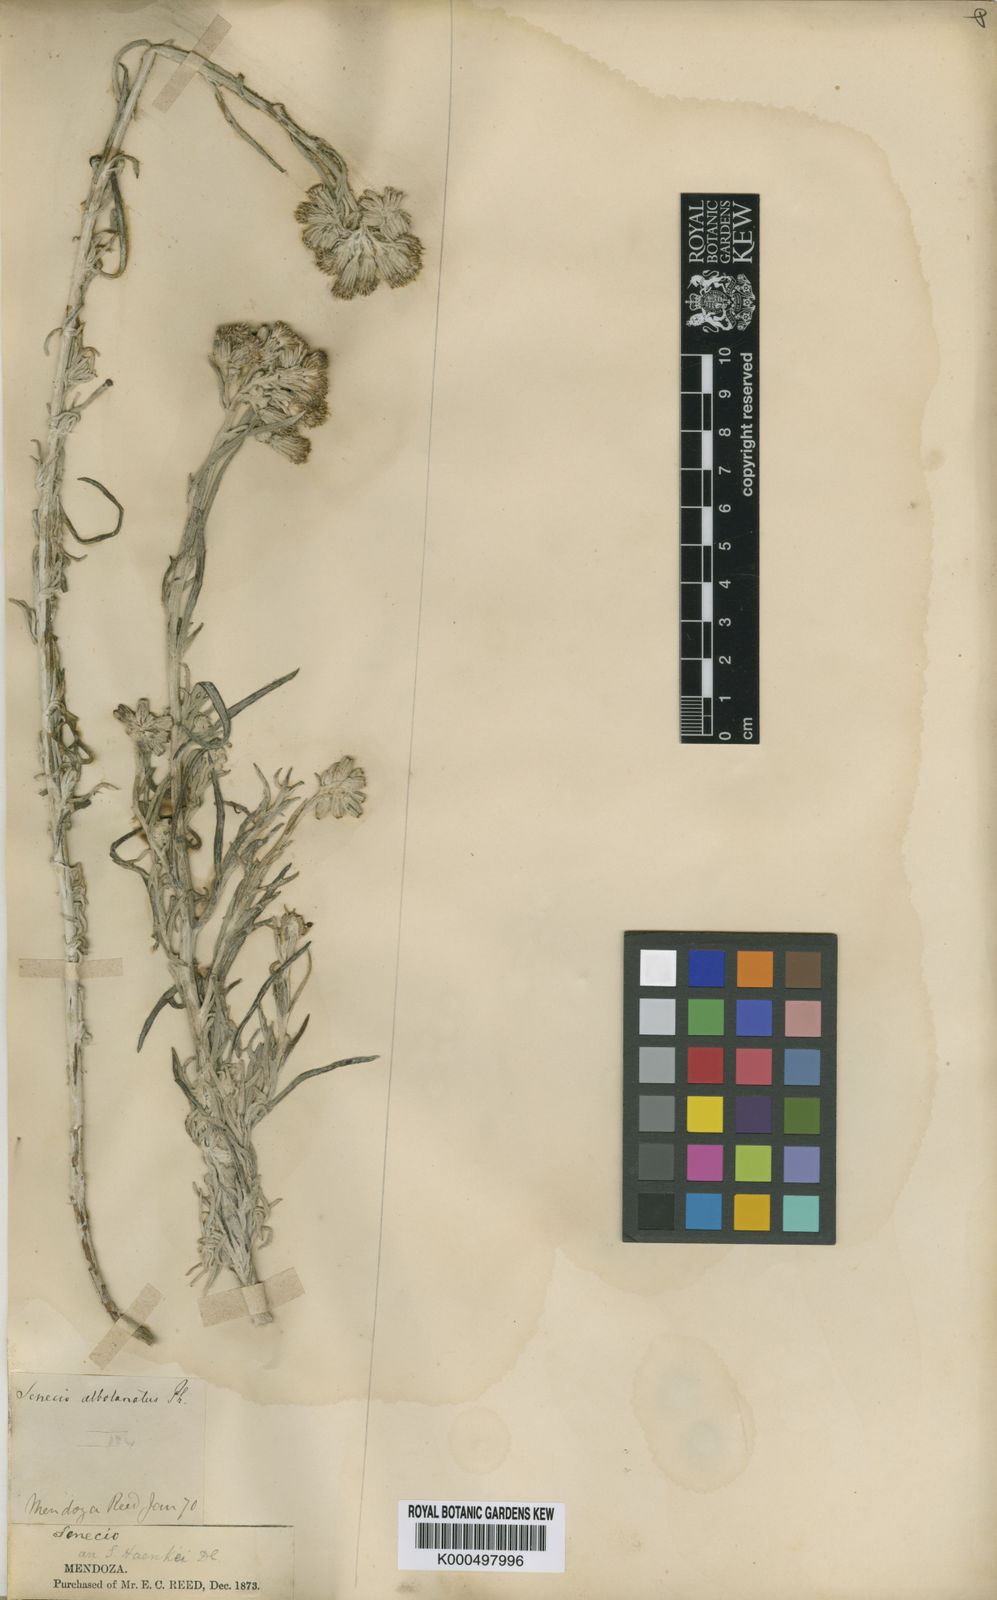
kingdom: Plantae
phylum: Tracheophyta
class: Magnoliopsida
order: Asterales
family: Asteraceae
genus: Senecio
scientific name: Senecio haenkei
